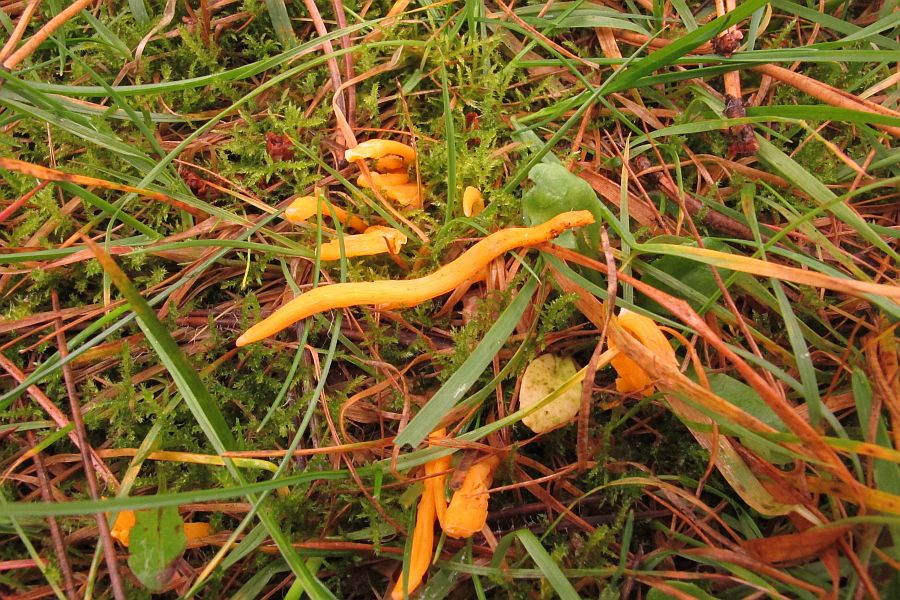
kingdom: Fungi
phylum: Basidiomycota
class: Agaricomycetes
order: Agaricales
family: Clavariaceae
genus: Clavulinopsis
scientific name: Clavulinopsis luteoalba
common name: abrikos-køllesvamp
